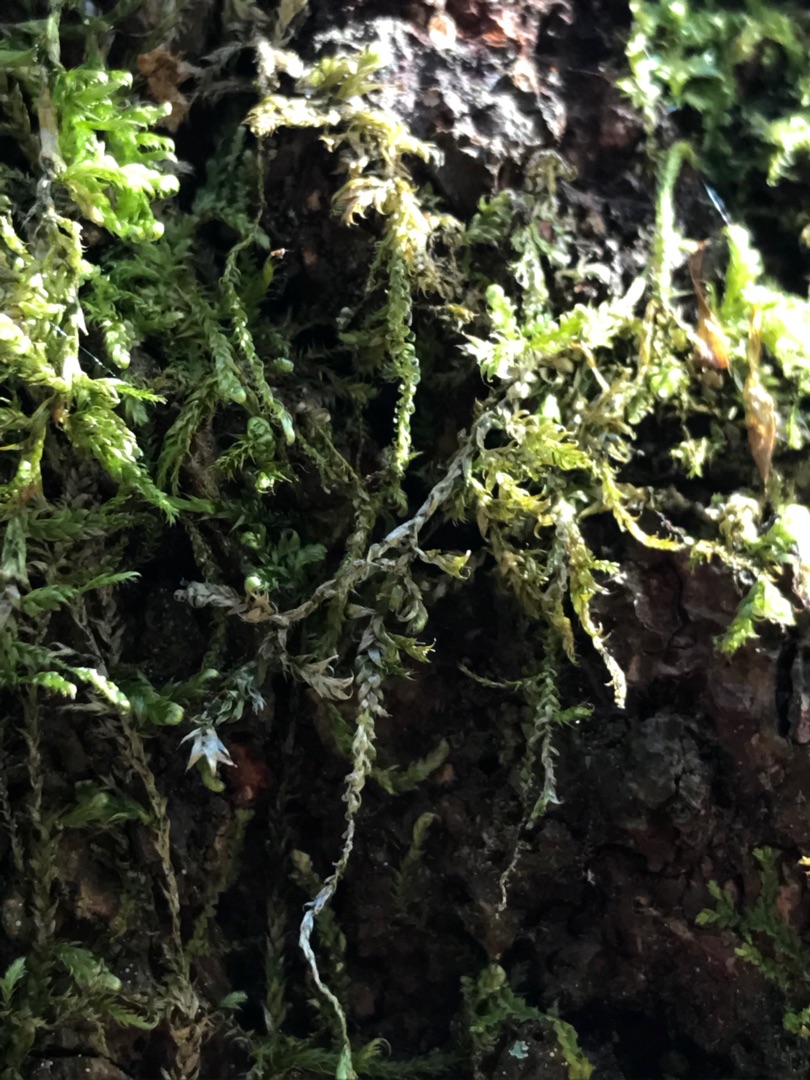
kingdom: Plantae
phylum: Bryophyta
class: Bryopsida
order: Hypnales
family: Hypnaceae
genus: Hypnum
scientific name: Hypnum
